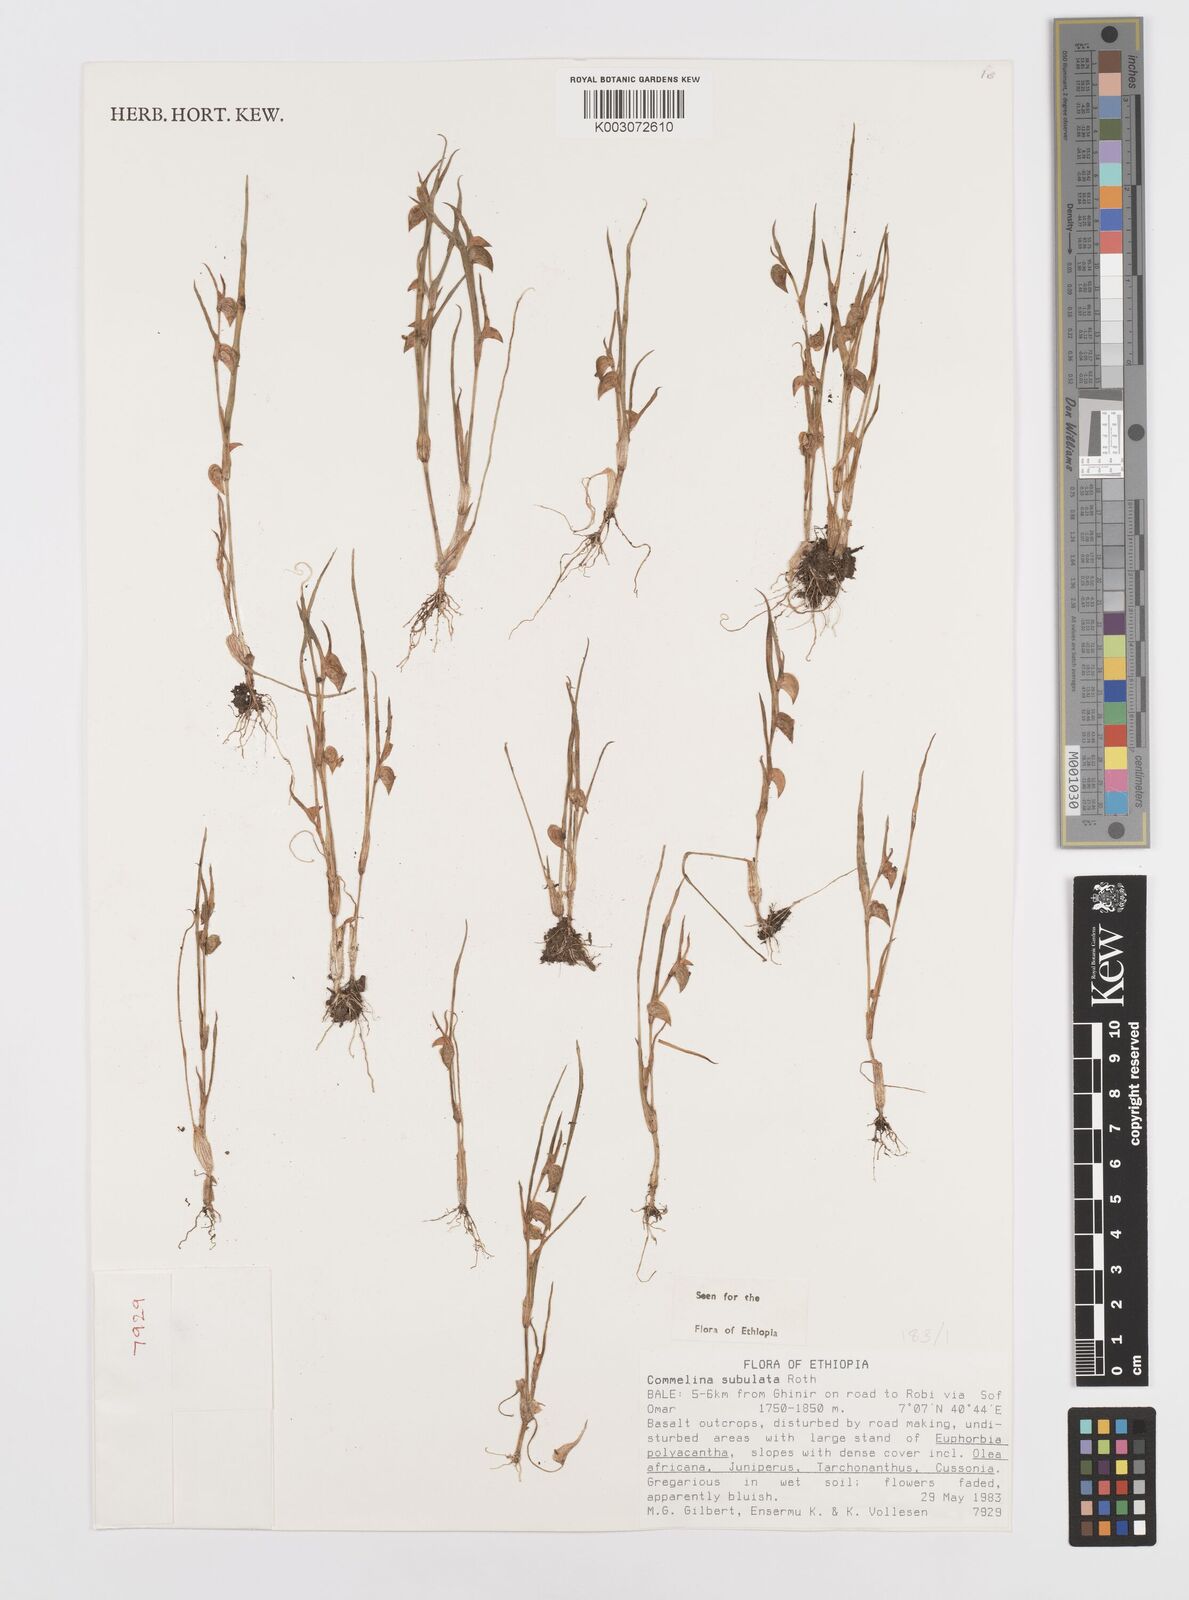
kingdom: Plantae
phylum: Tracheophyta
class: Liliopsida
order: Commelinales
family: Commelinaceae
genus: Commelina
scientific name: Commelina subulata
